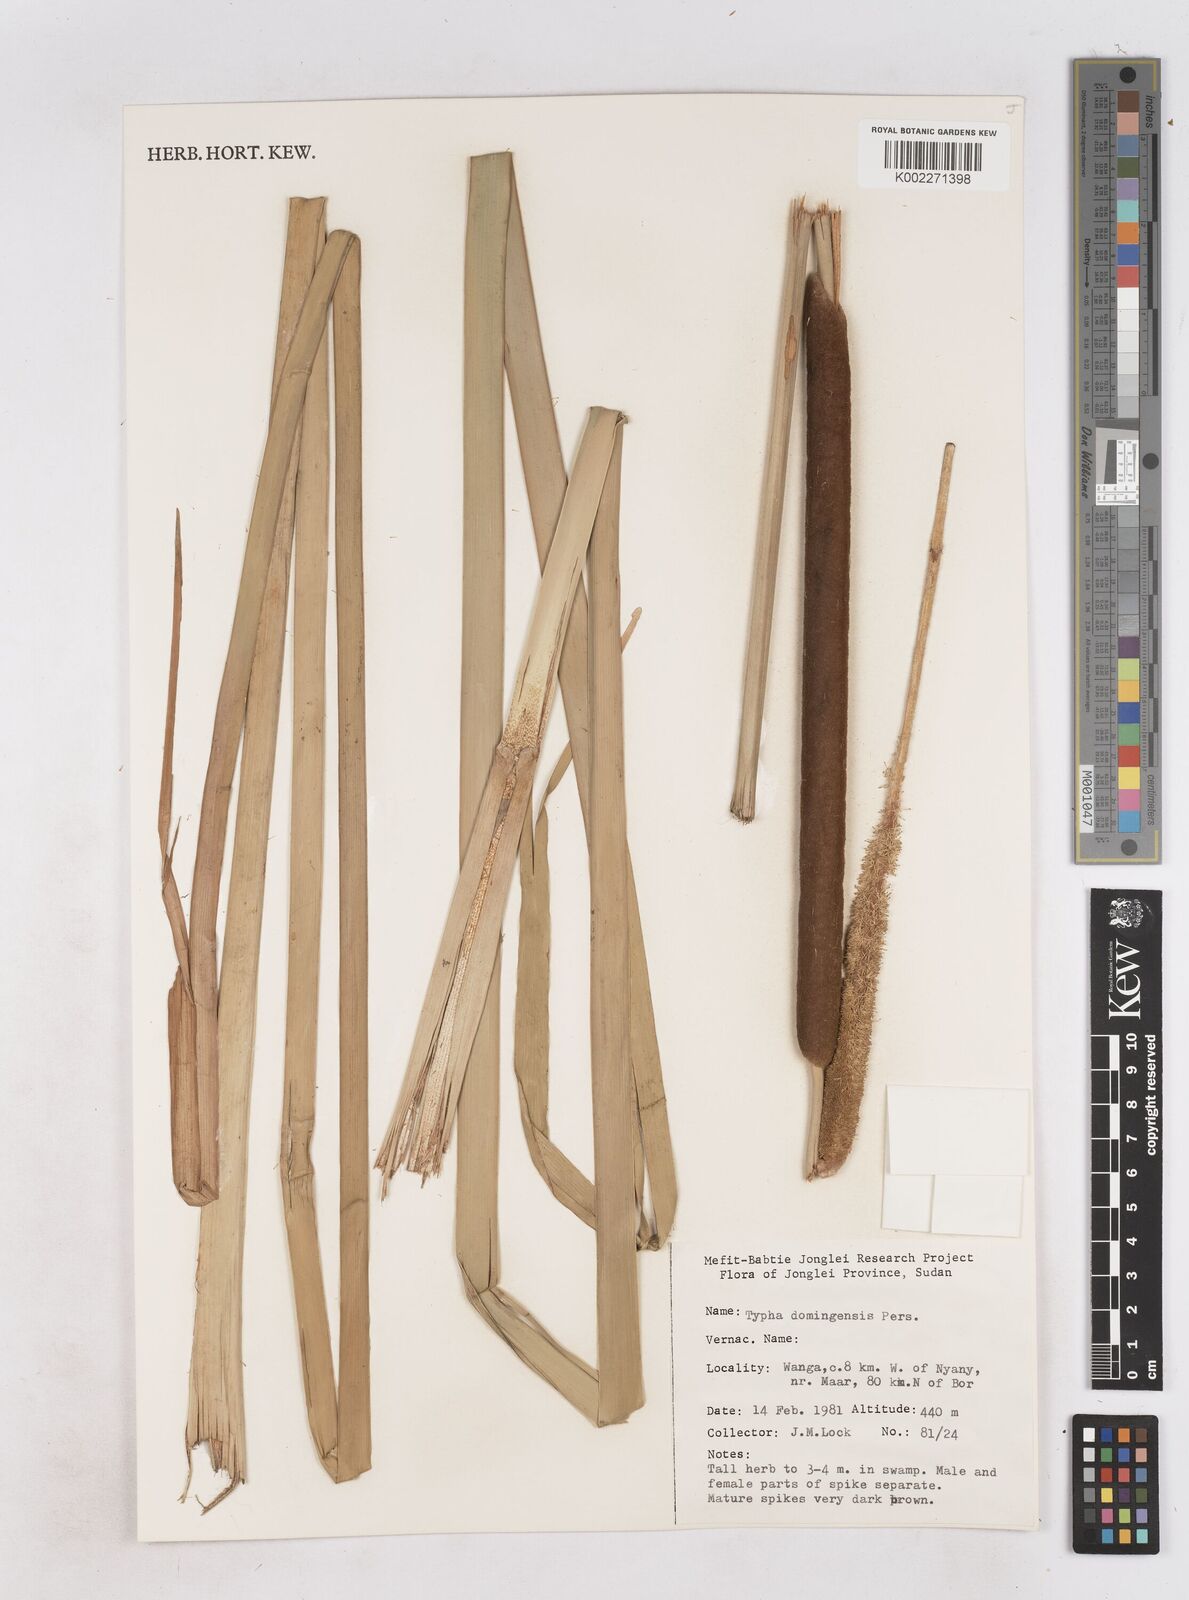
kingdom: Plantae
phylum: Tracheophyta
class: Liliopsida
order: Poales
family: Typhaceae
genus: Typha
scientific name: Typha domingensis
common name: Southern cattail
